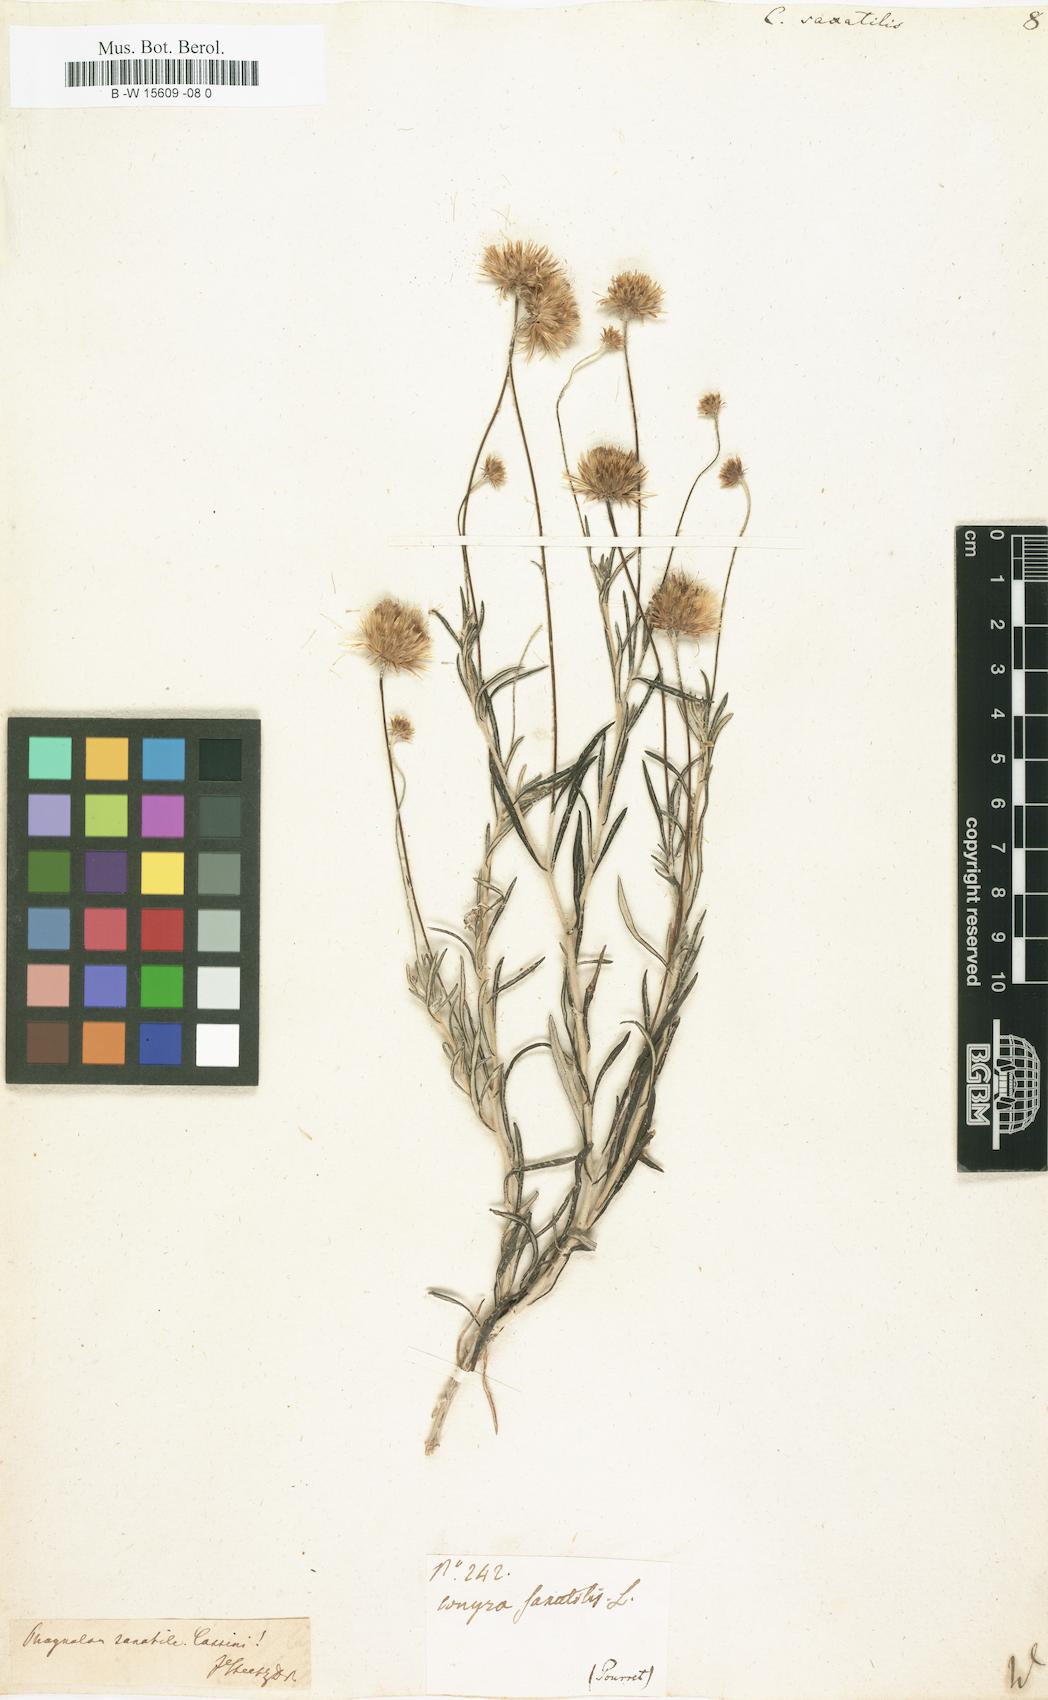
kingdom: Plantae
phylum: Tracheophyta
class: Magnoliopsida
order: Asterales
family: Asteraceae
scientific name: Asteraceae
